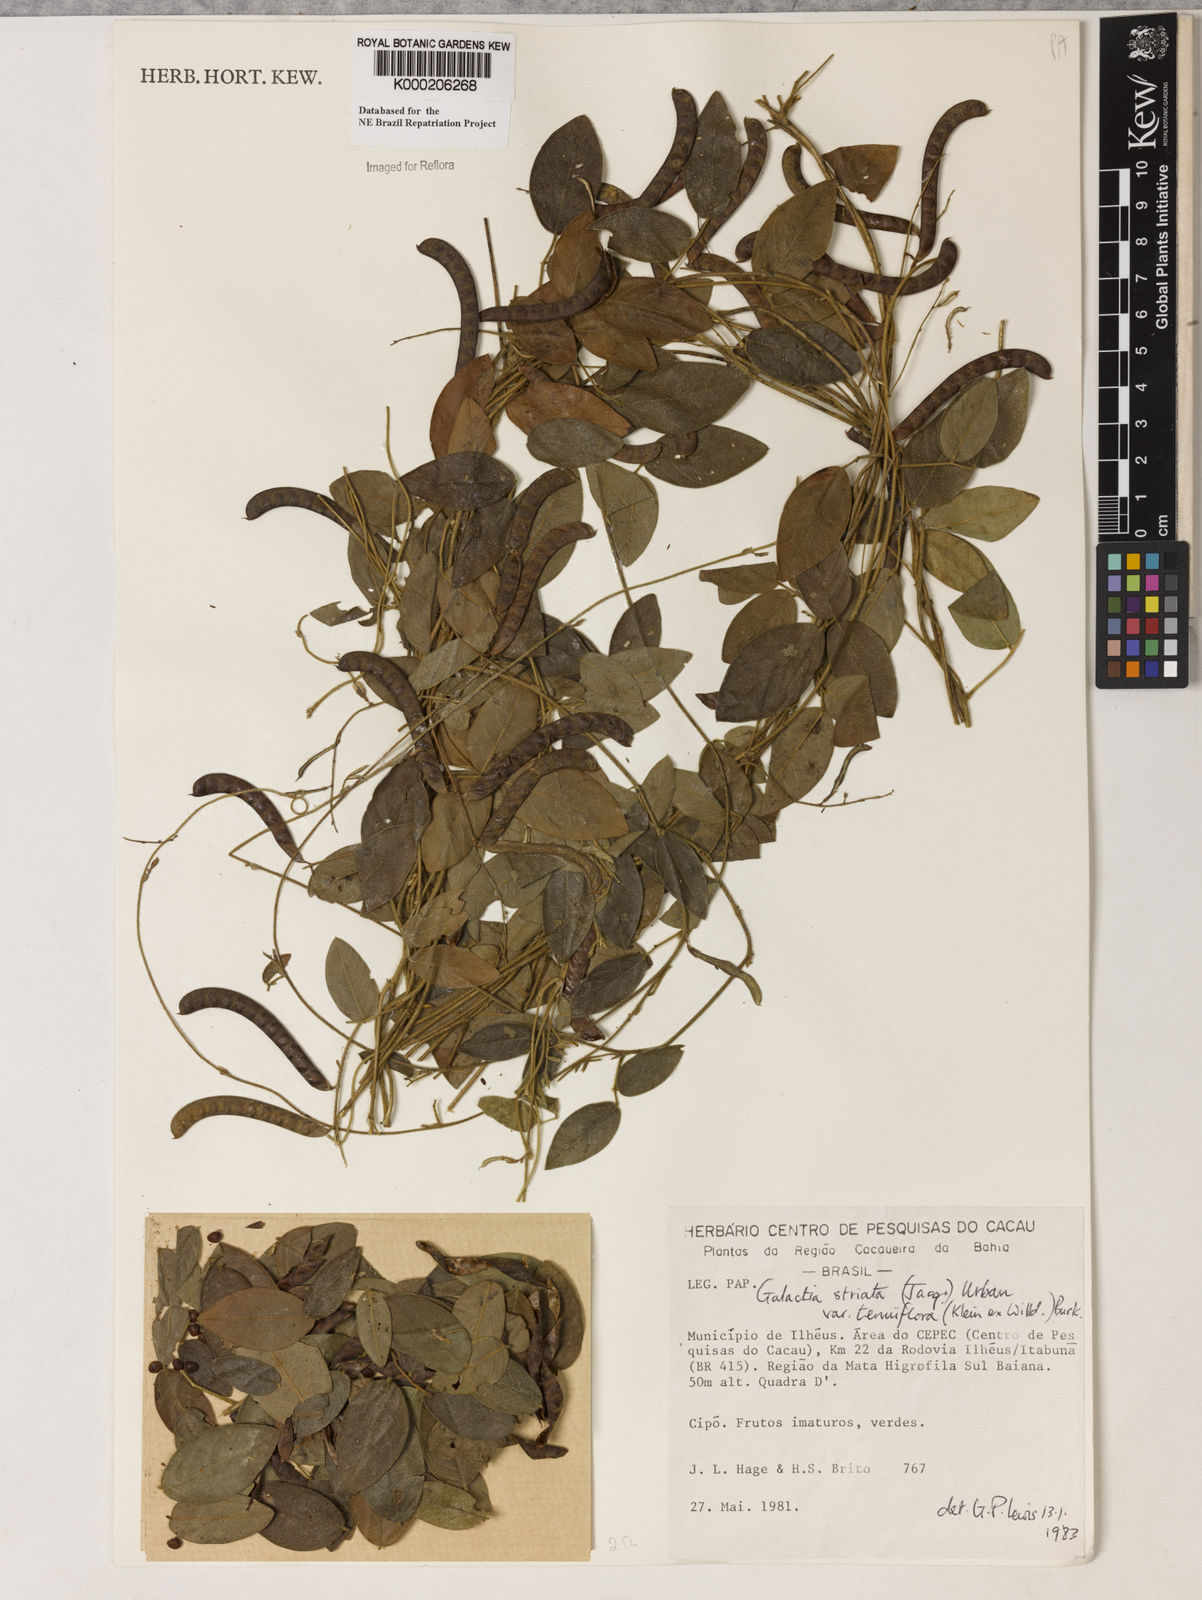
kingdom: Plantae
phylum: Tracheophyta
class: Magnoliopsida
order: Fabales
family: Fabaceae
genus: Galactia
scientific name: Galactia striata
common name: Florida hammock milkpea
